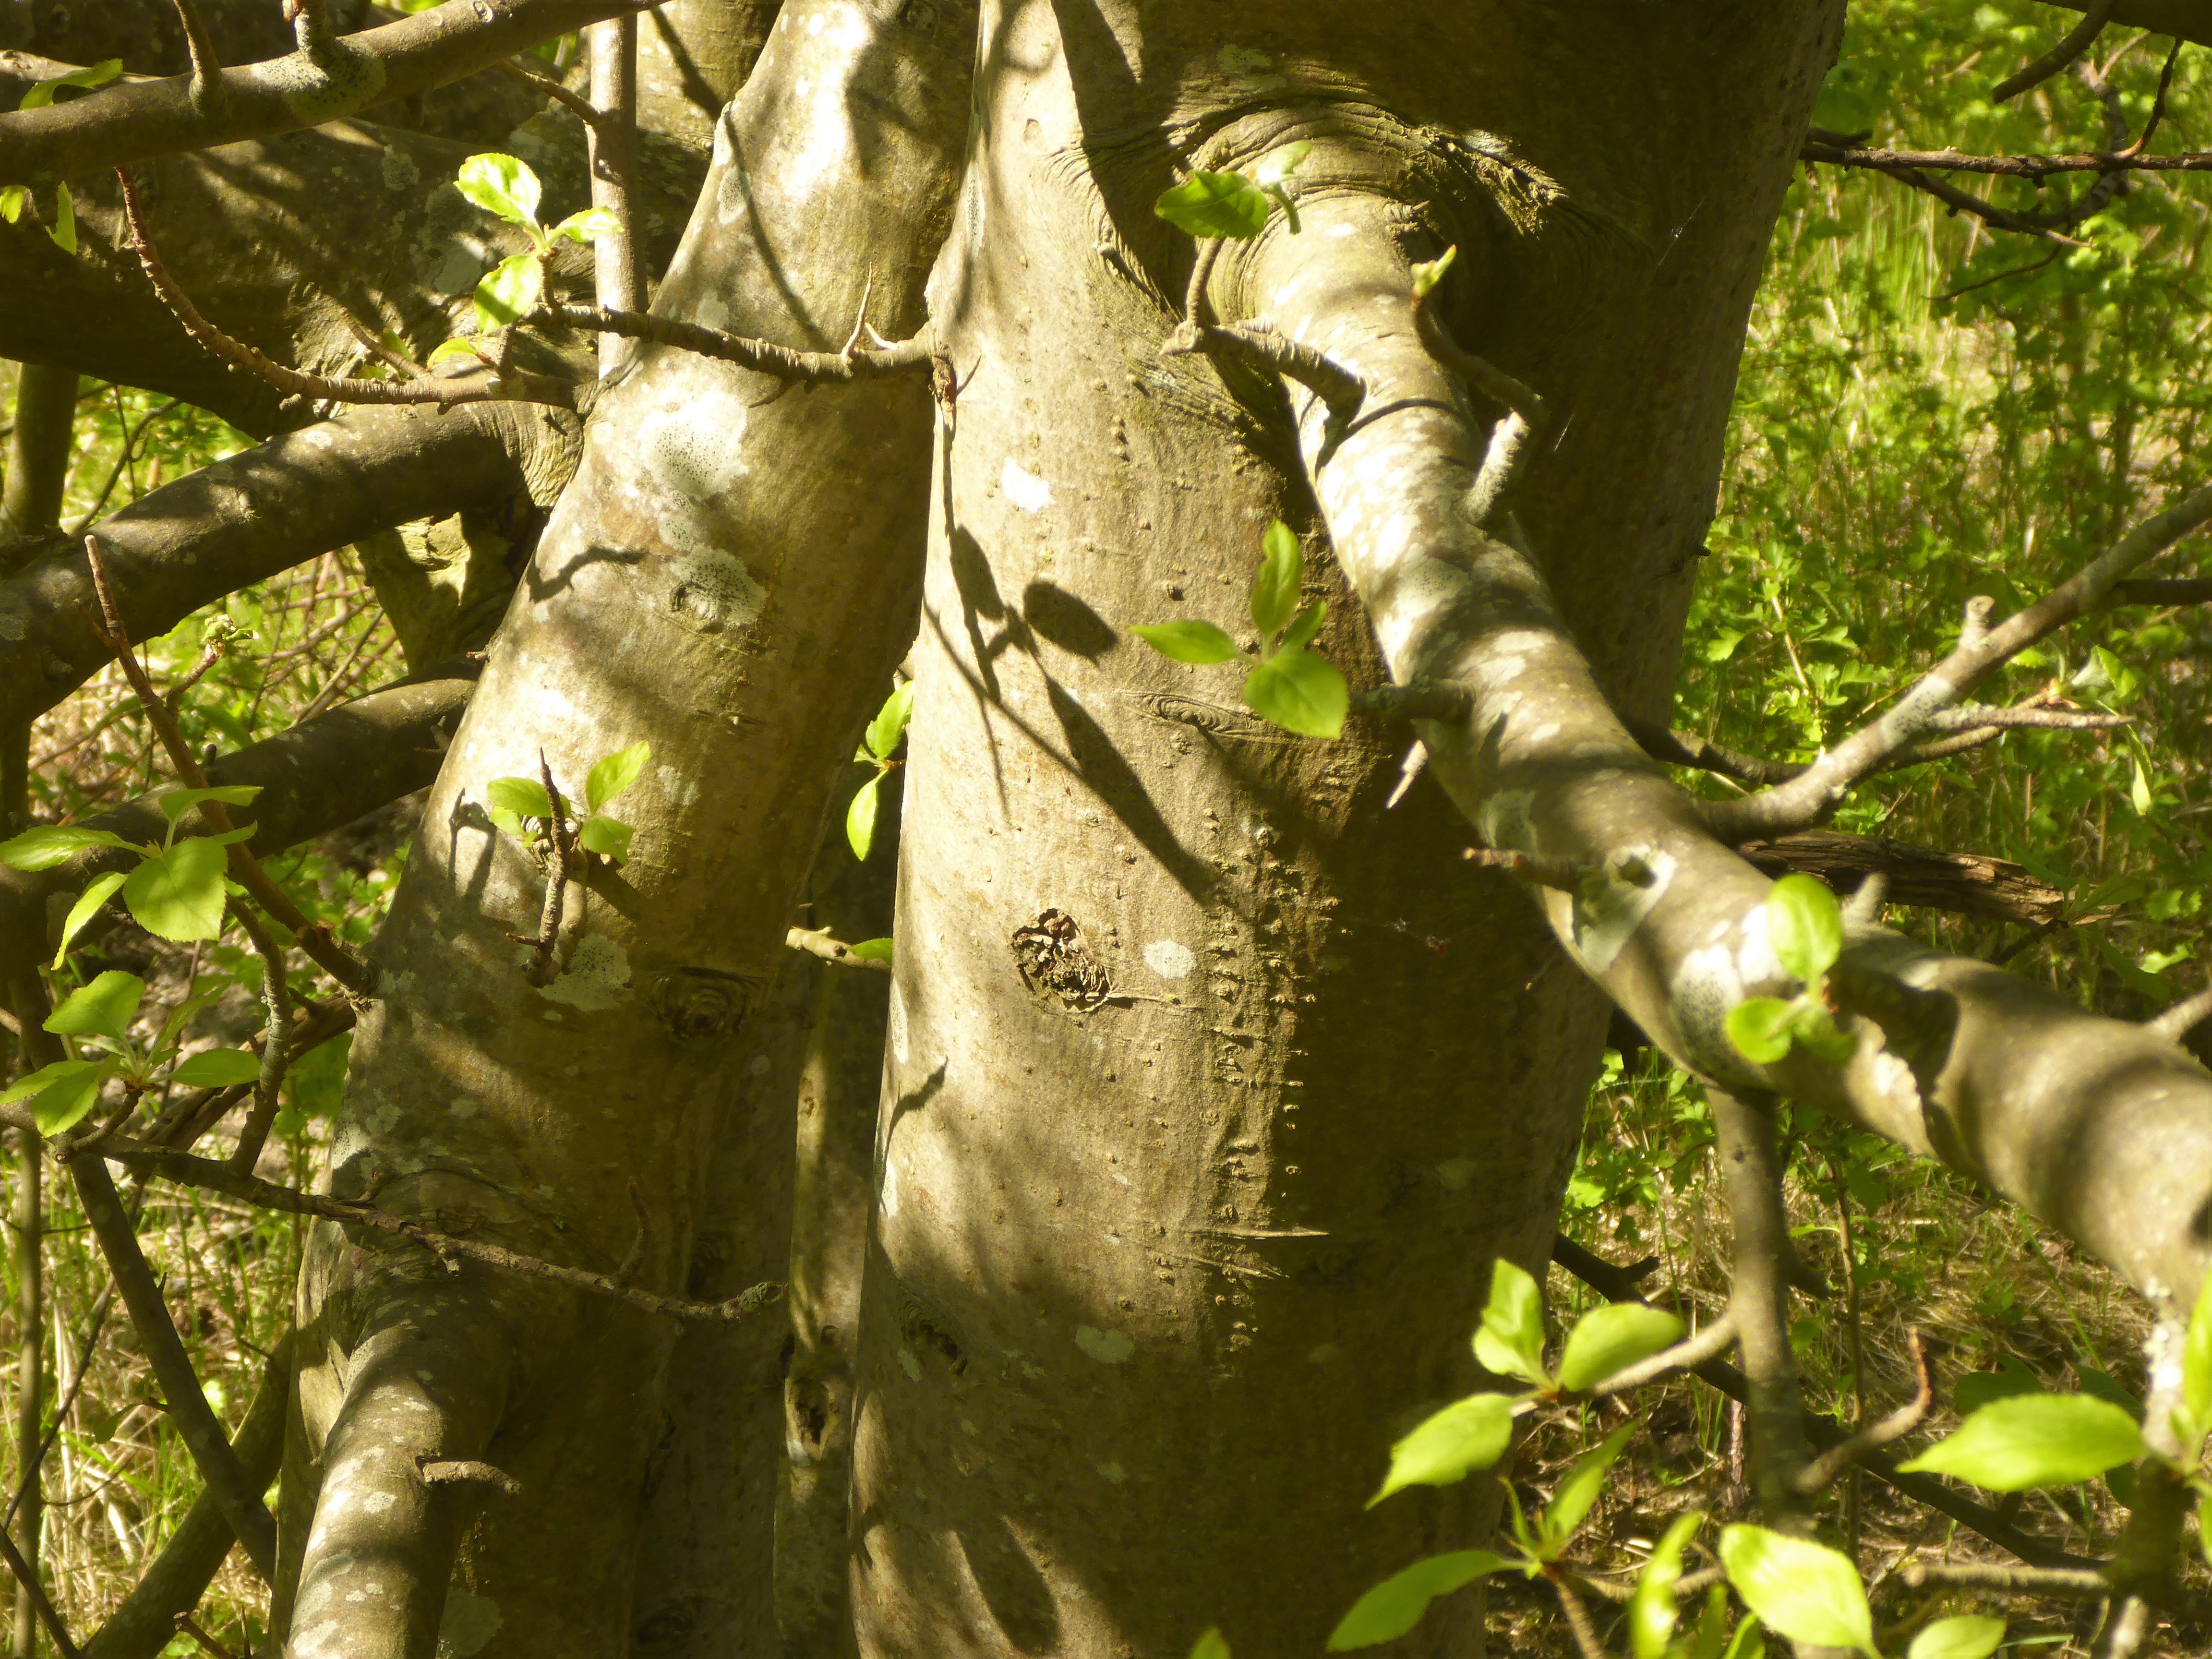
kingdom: Plantae
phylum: Tracheophyta
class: Magnoliopsida
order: Rosales
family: Rosaceae
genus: Malus
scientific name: Malus
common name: Æbleslægten
